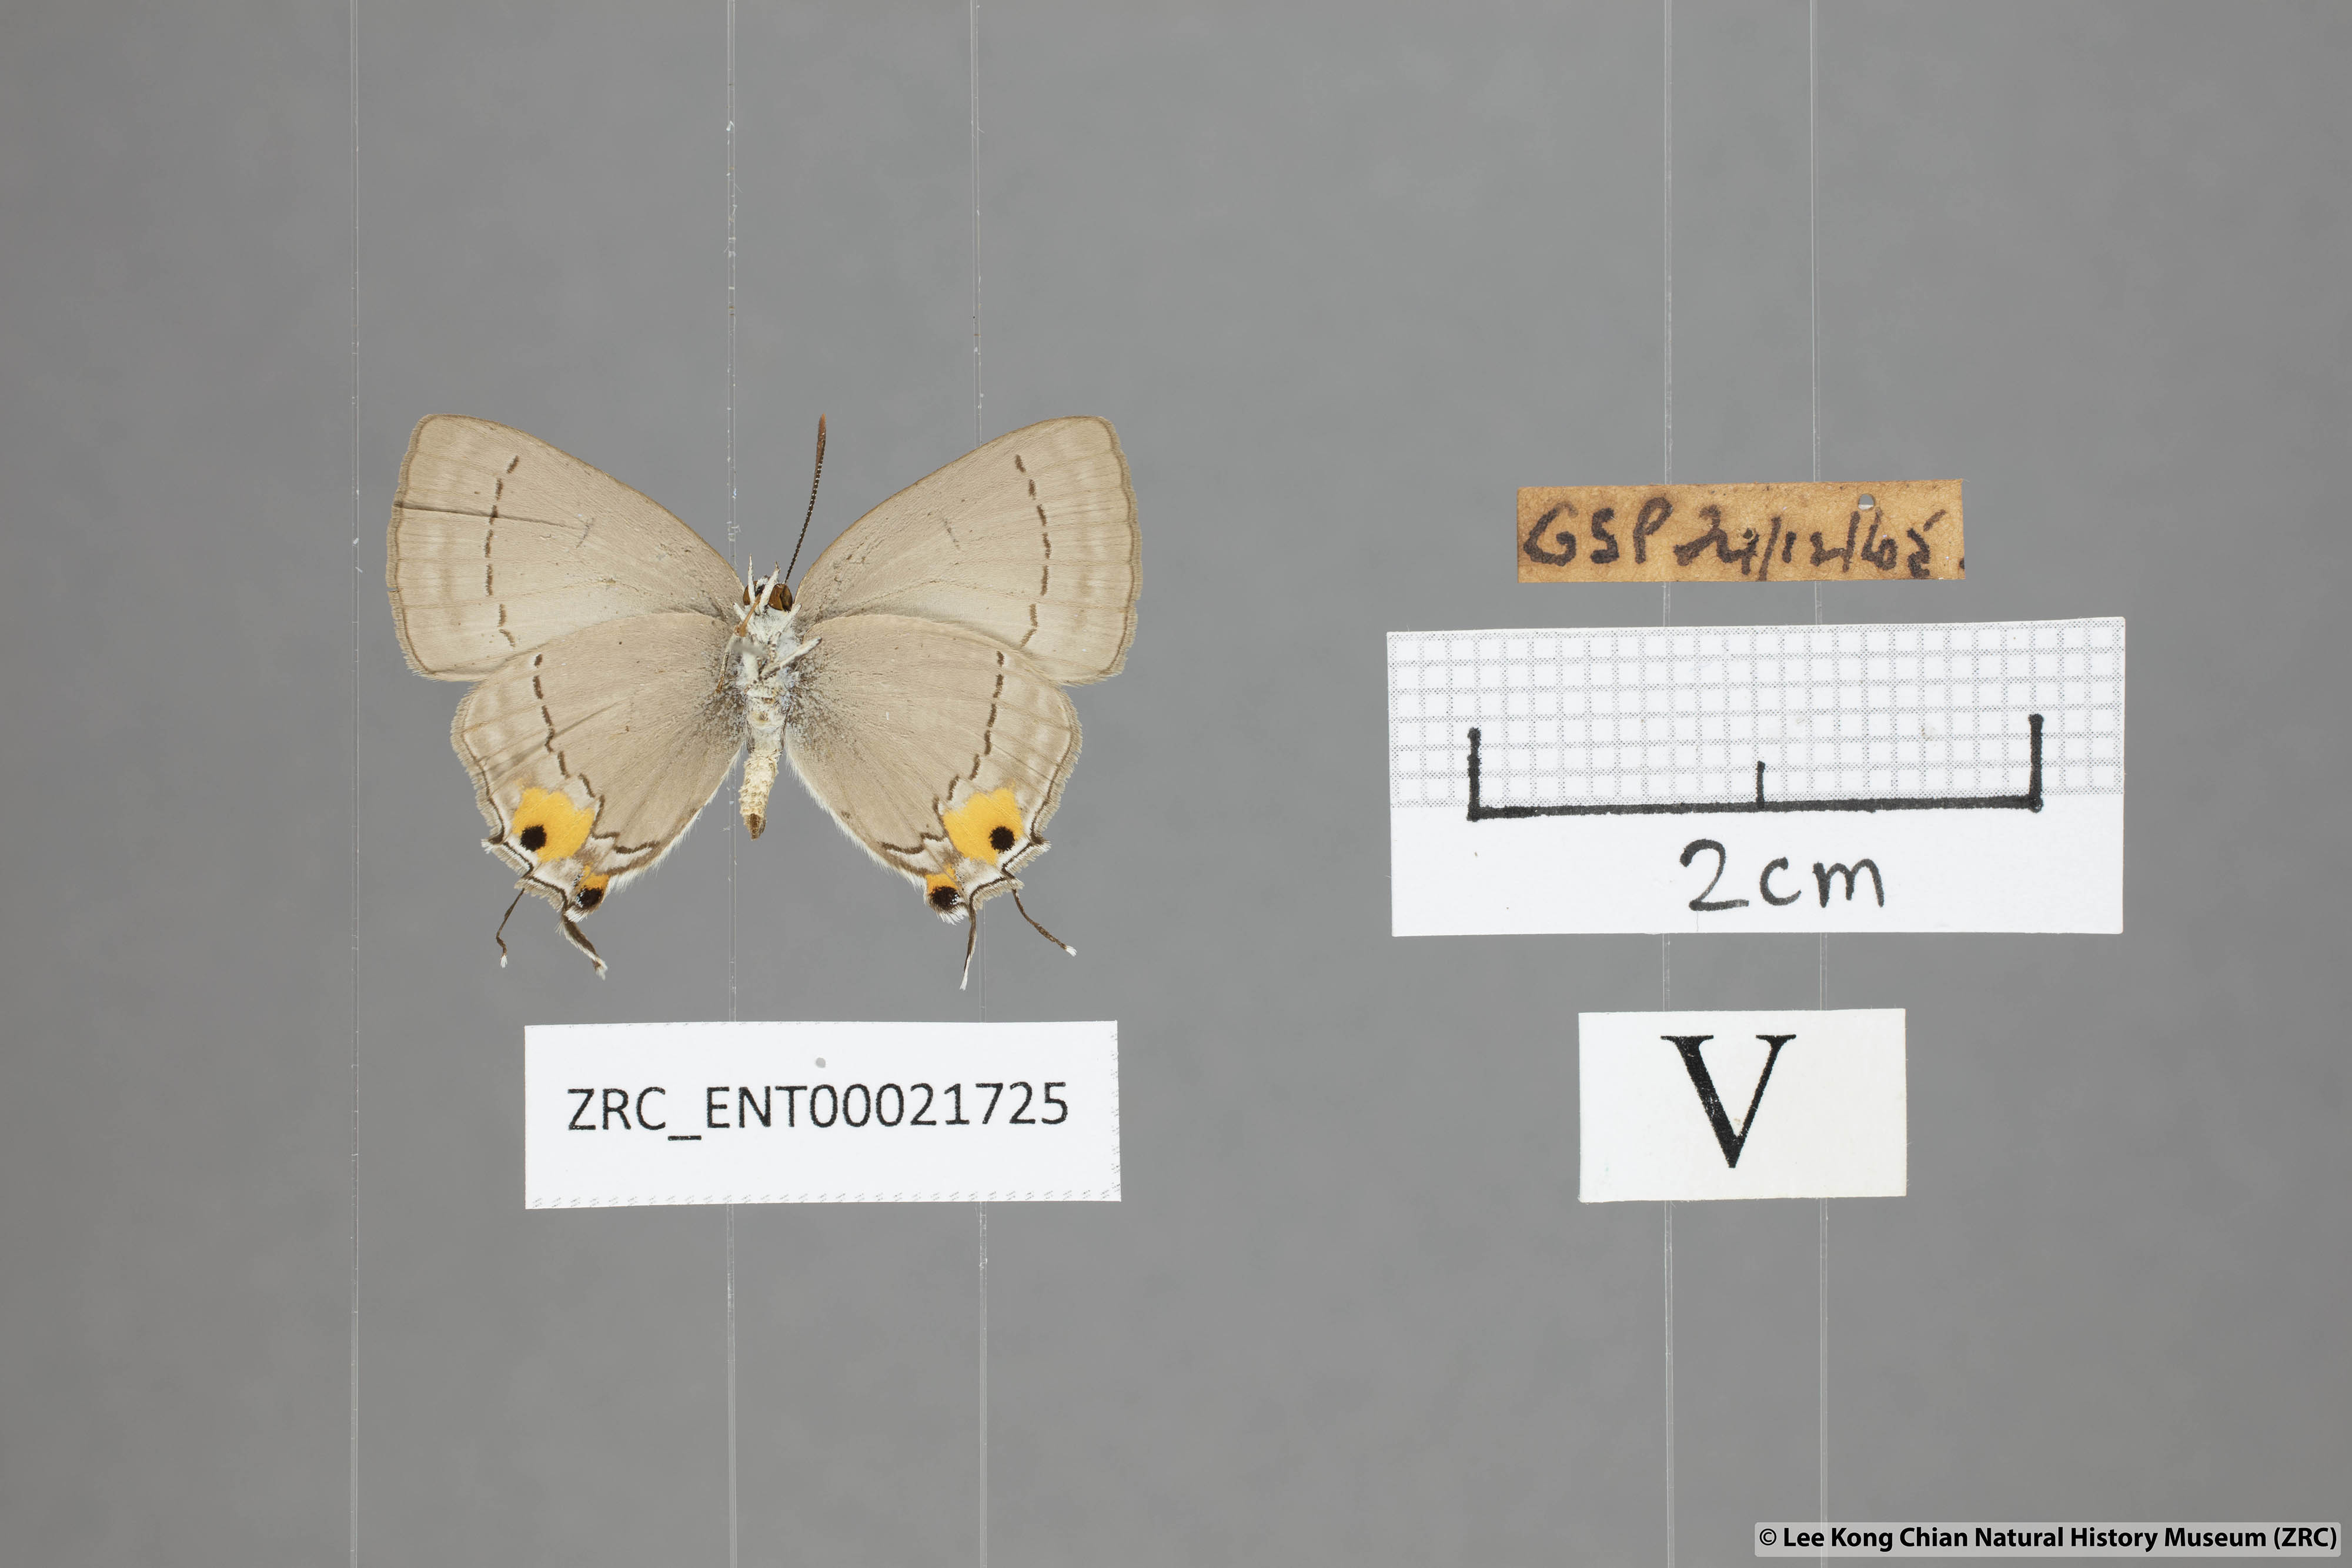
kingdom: Animalia
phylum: Arthropoda
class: Insecta
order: Lepidoptera
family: Lycaenidae
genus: Pratapa
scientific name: Pratapa deva
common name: White royal
